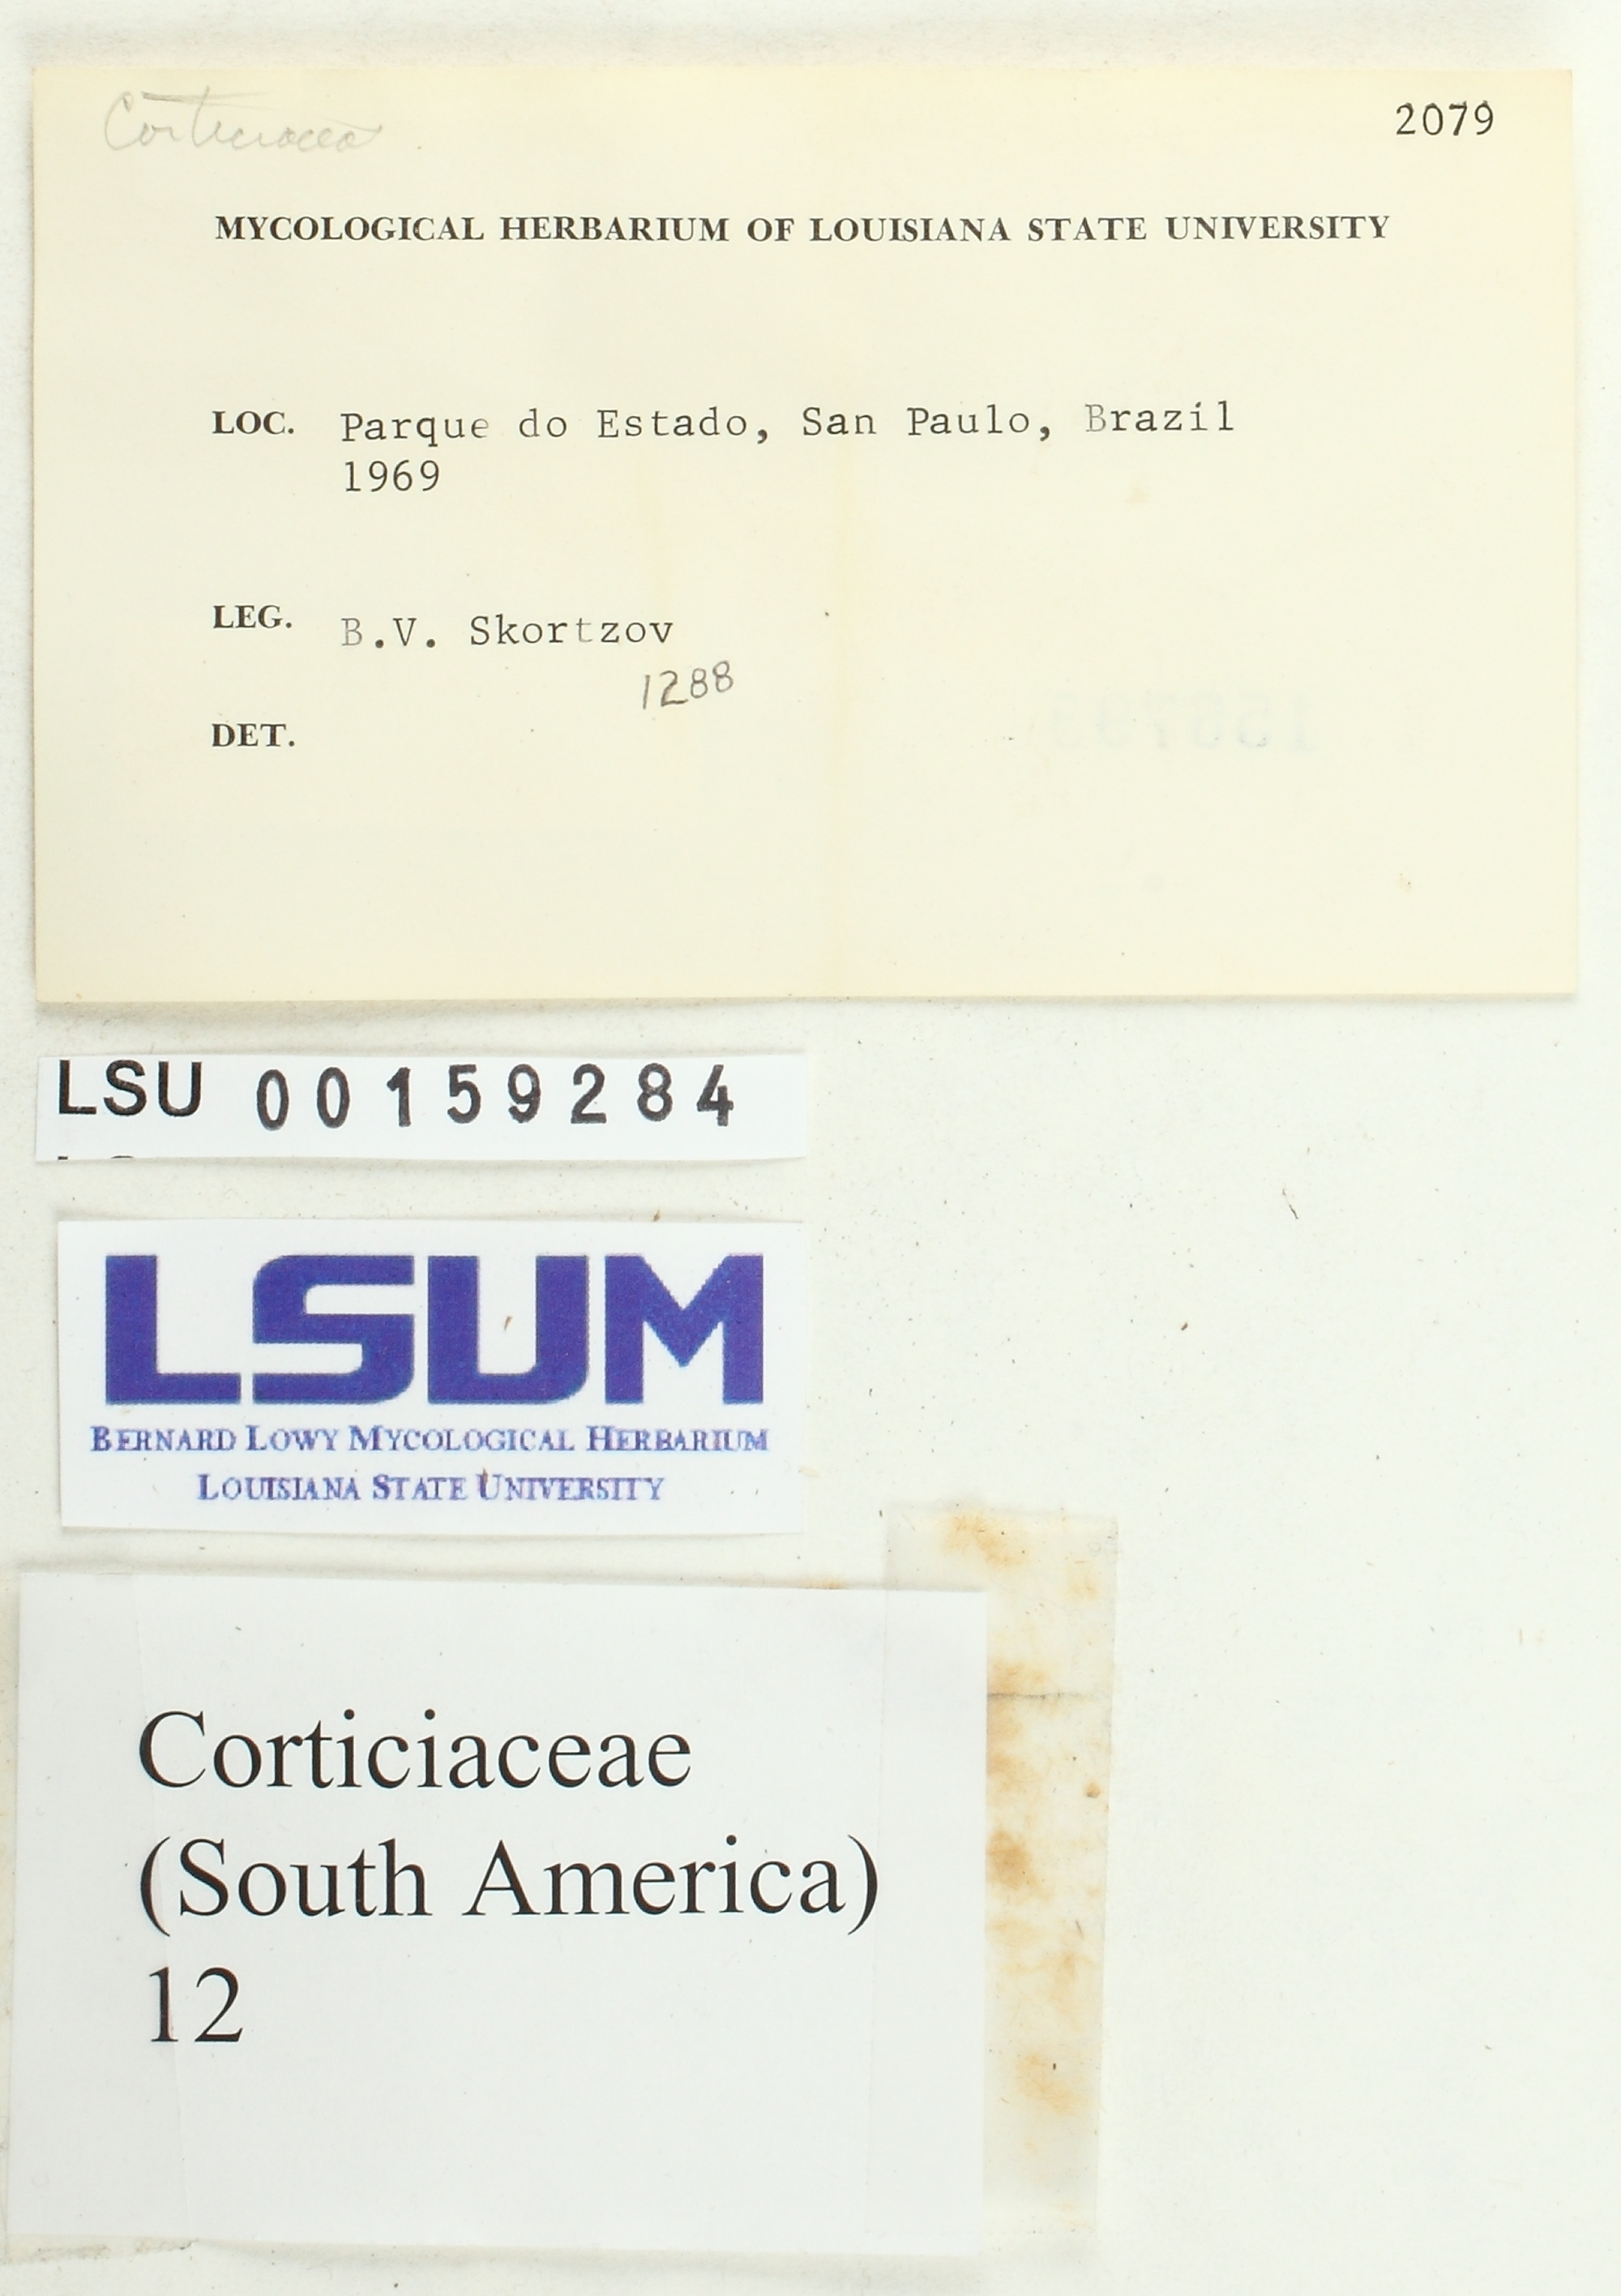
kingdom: Fungi
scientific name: Fungi
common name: Fungi
